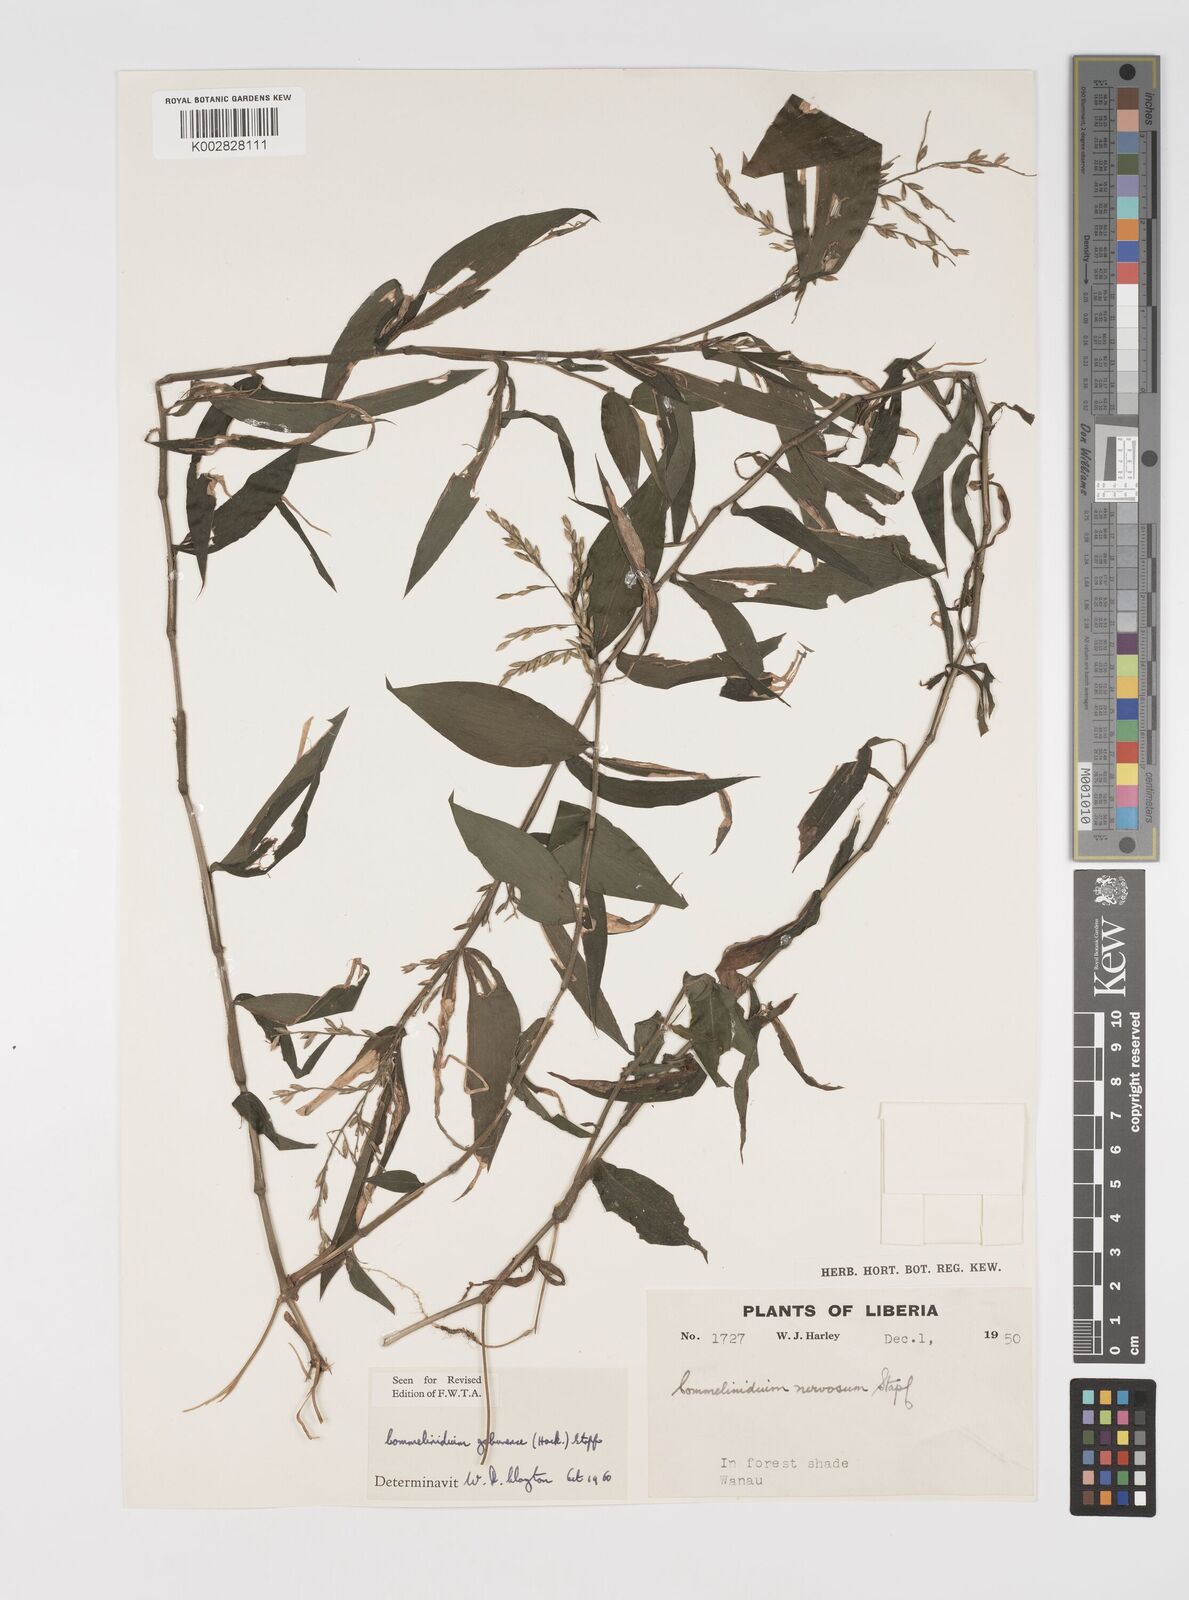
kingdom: Plantae
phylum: Tracheophyta
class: Liliopsida
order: Poales
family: Poaceae
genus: Acroceras
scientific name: Acroceras gabunense
